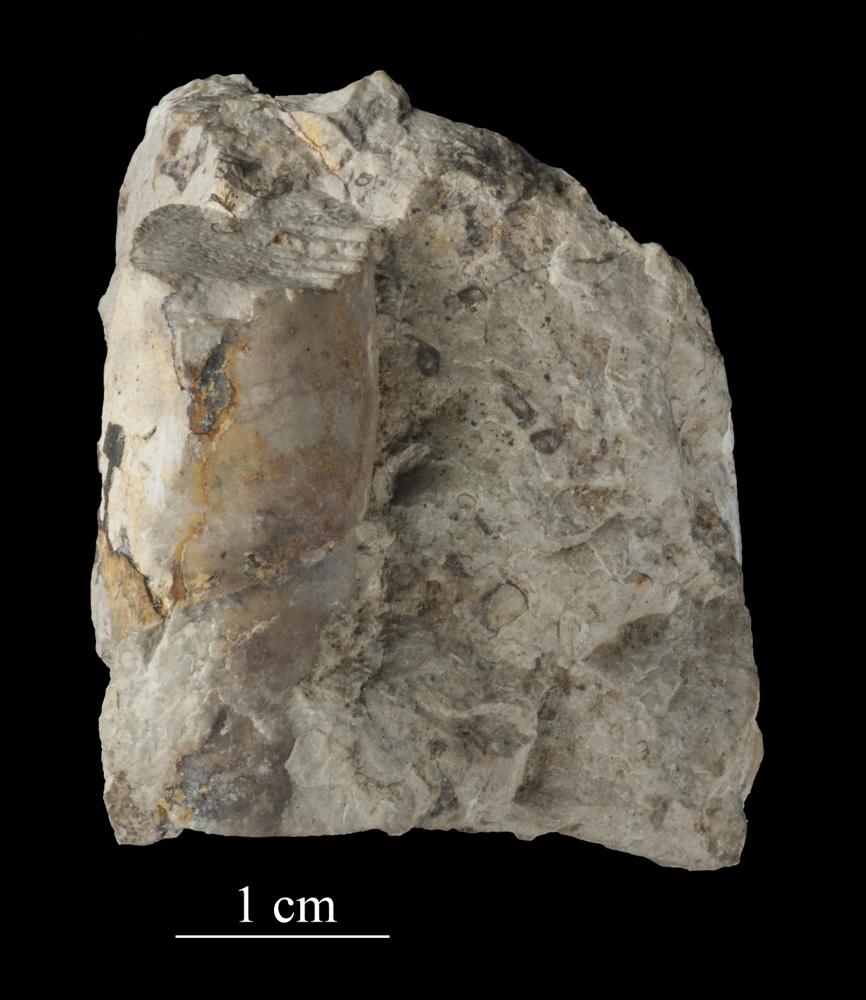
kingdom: Animalia
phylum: Mollusca
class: Gastropoda
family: Subulitidae
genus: Subulites
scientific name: Subulites subula
